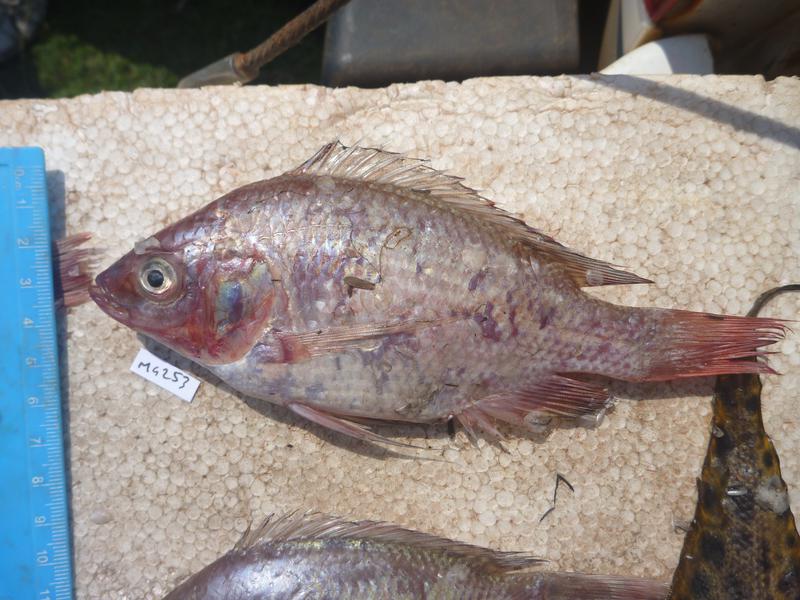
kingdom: Animalia
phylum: Chordata
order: Perciformes
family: Cichlidae
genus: Oreochromis
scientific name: Oreochromis esculentus
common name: Carp
